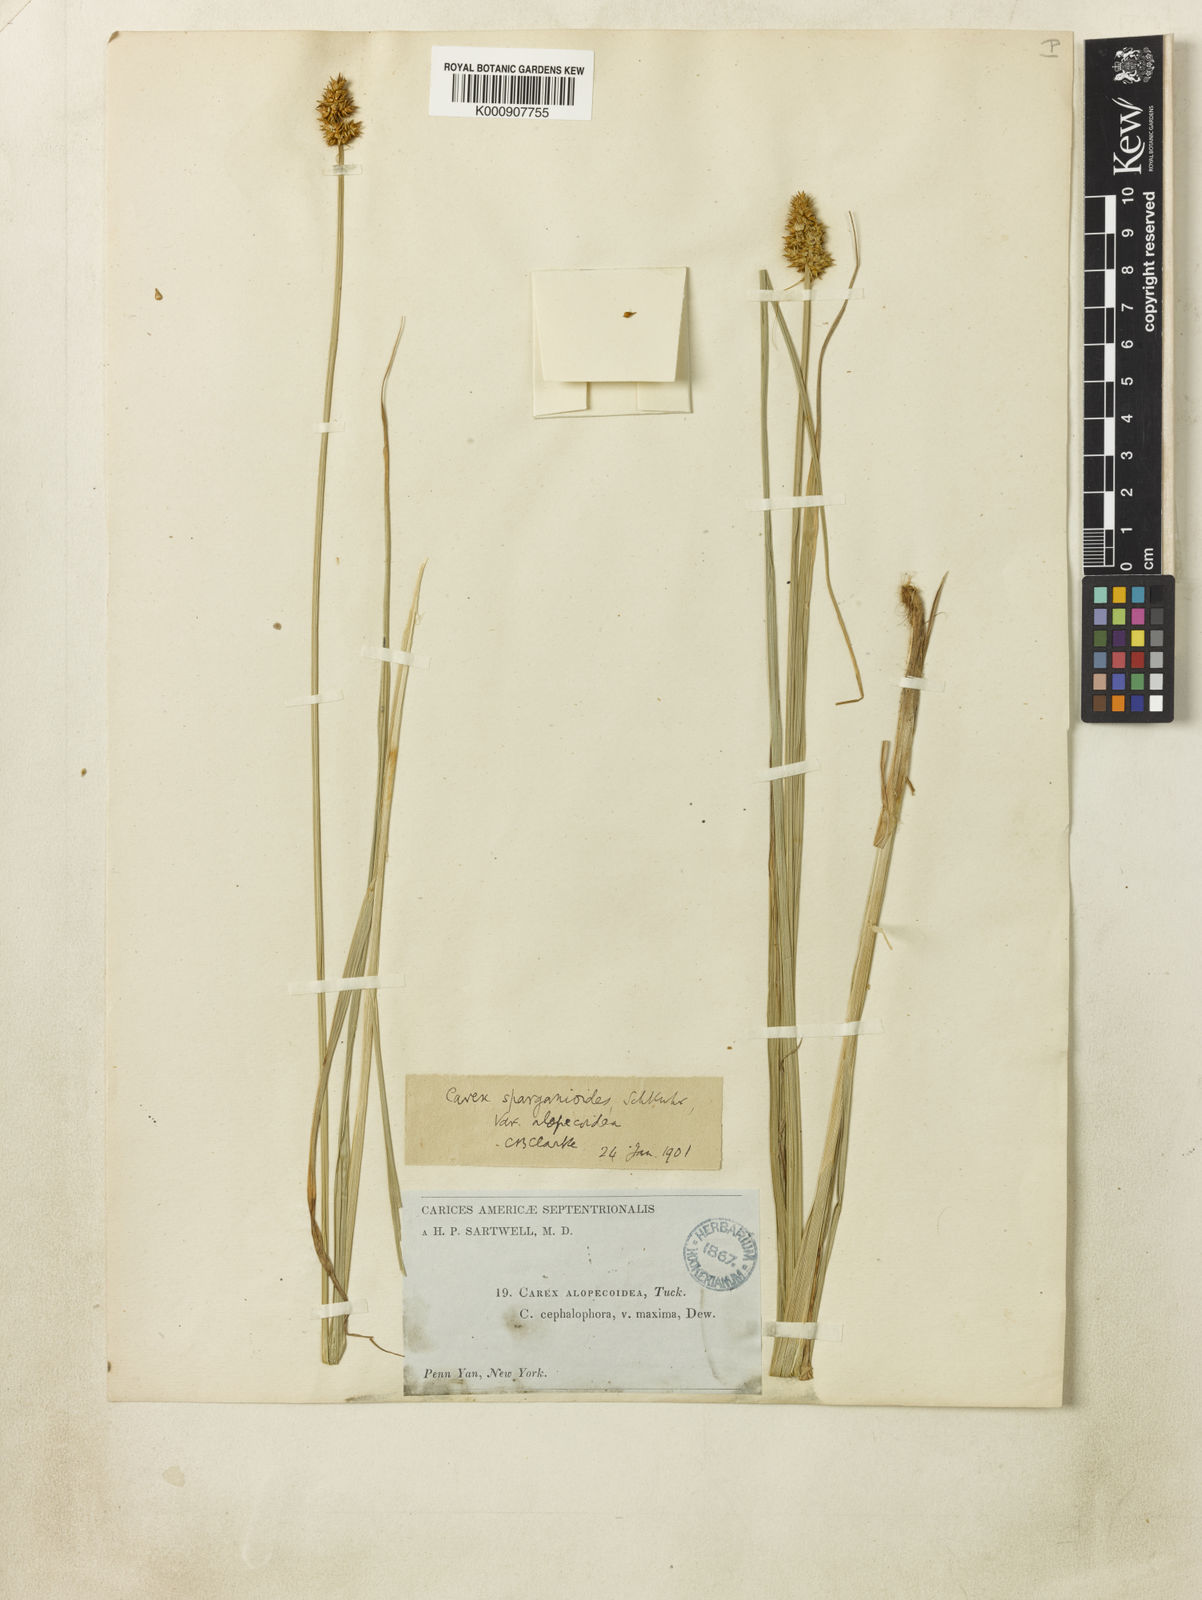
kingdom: Plantae
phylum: Tracheophyta
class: Liliopsida
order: Poales
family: Cyperaceae
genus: Carex
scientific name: Carex alopecoidea
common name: Brown-headed fox sedge
